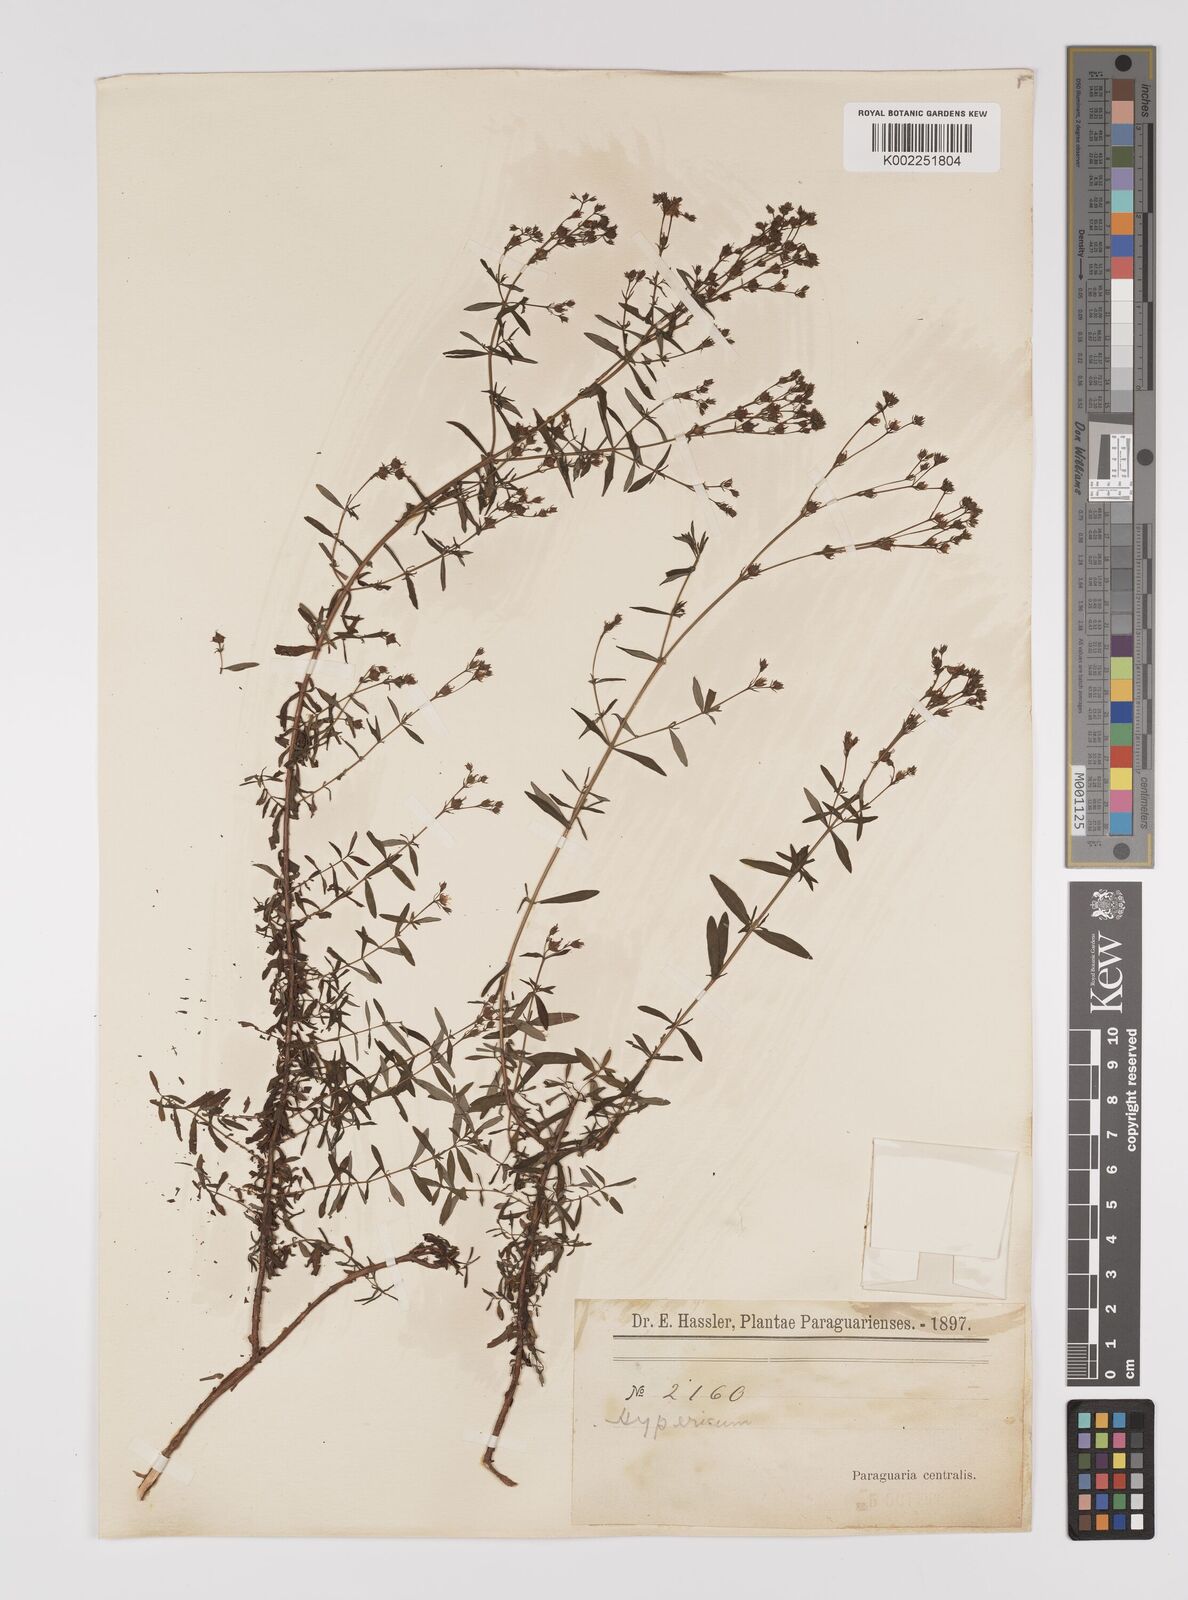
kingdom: Plantae
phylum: Tracheophyta
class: Magnoliopsida
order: Malpighiales
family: Hypericaceae
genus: Hypericum
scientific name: Hypericum lorentzianum
